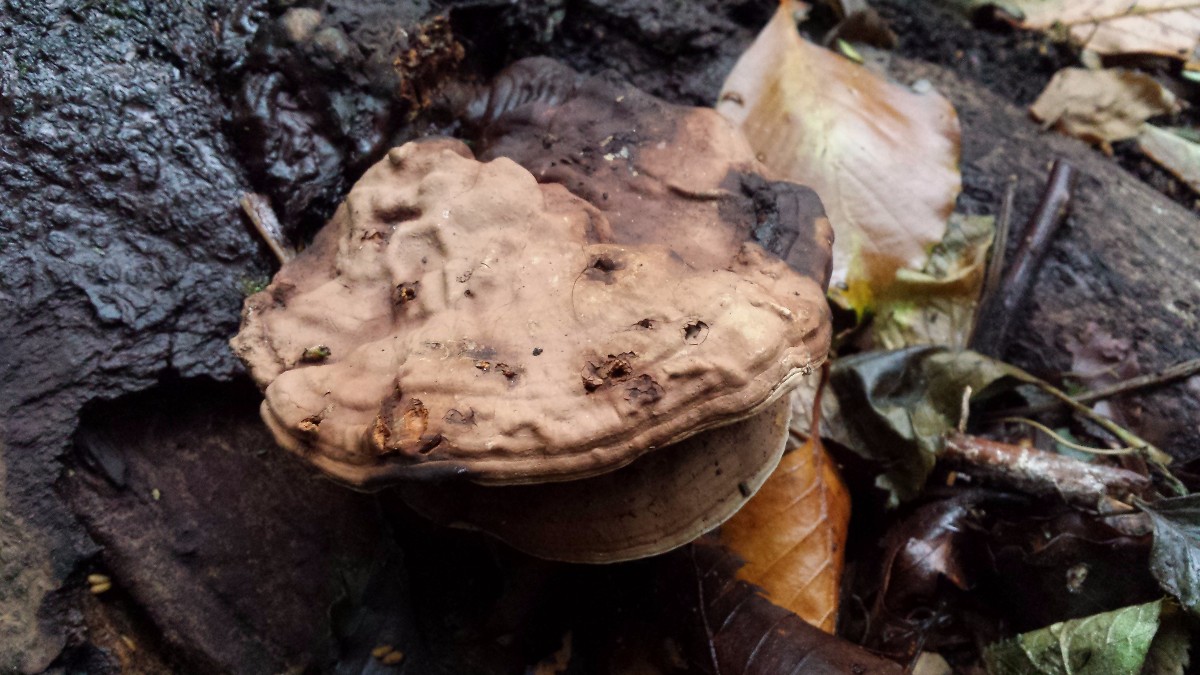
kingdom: Fungi
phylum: Basidiomycota
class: Agaricomycetes
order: Polyporales
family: Polyporaceae
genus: Ganoderma
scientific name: Ganoderma applanatum
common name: flad lakporesvamp
